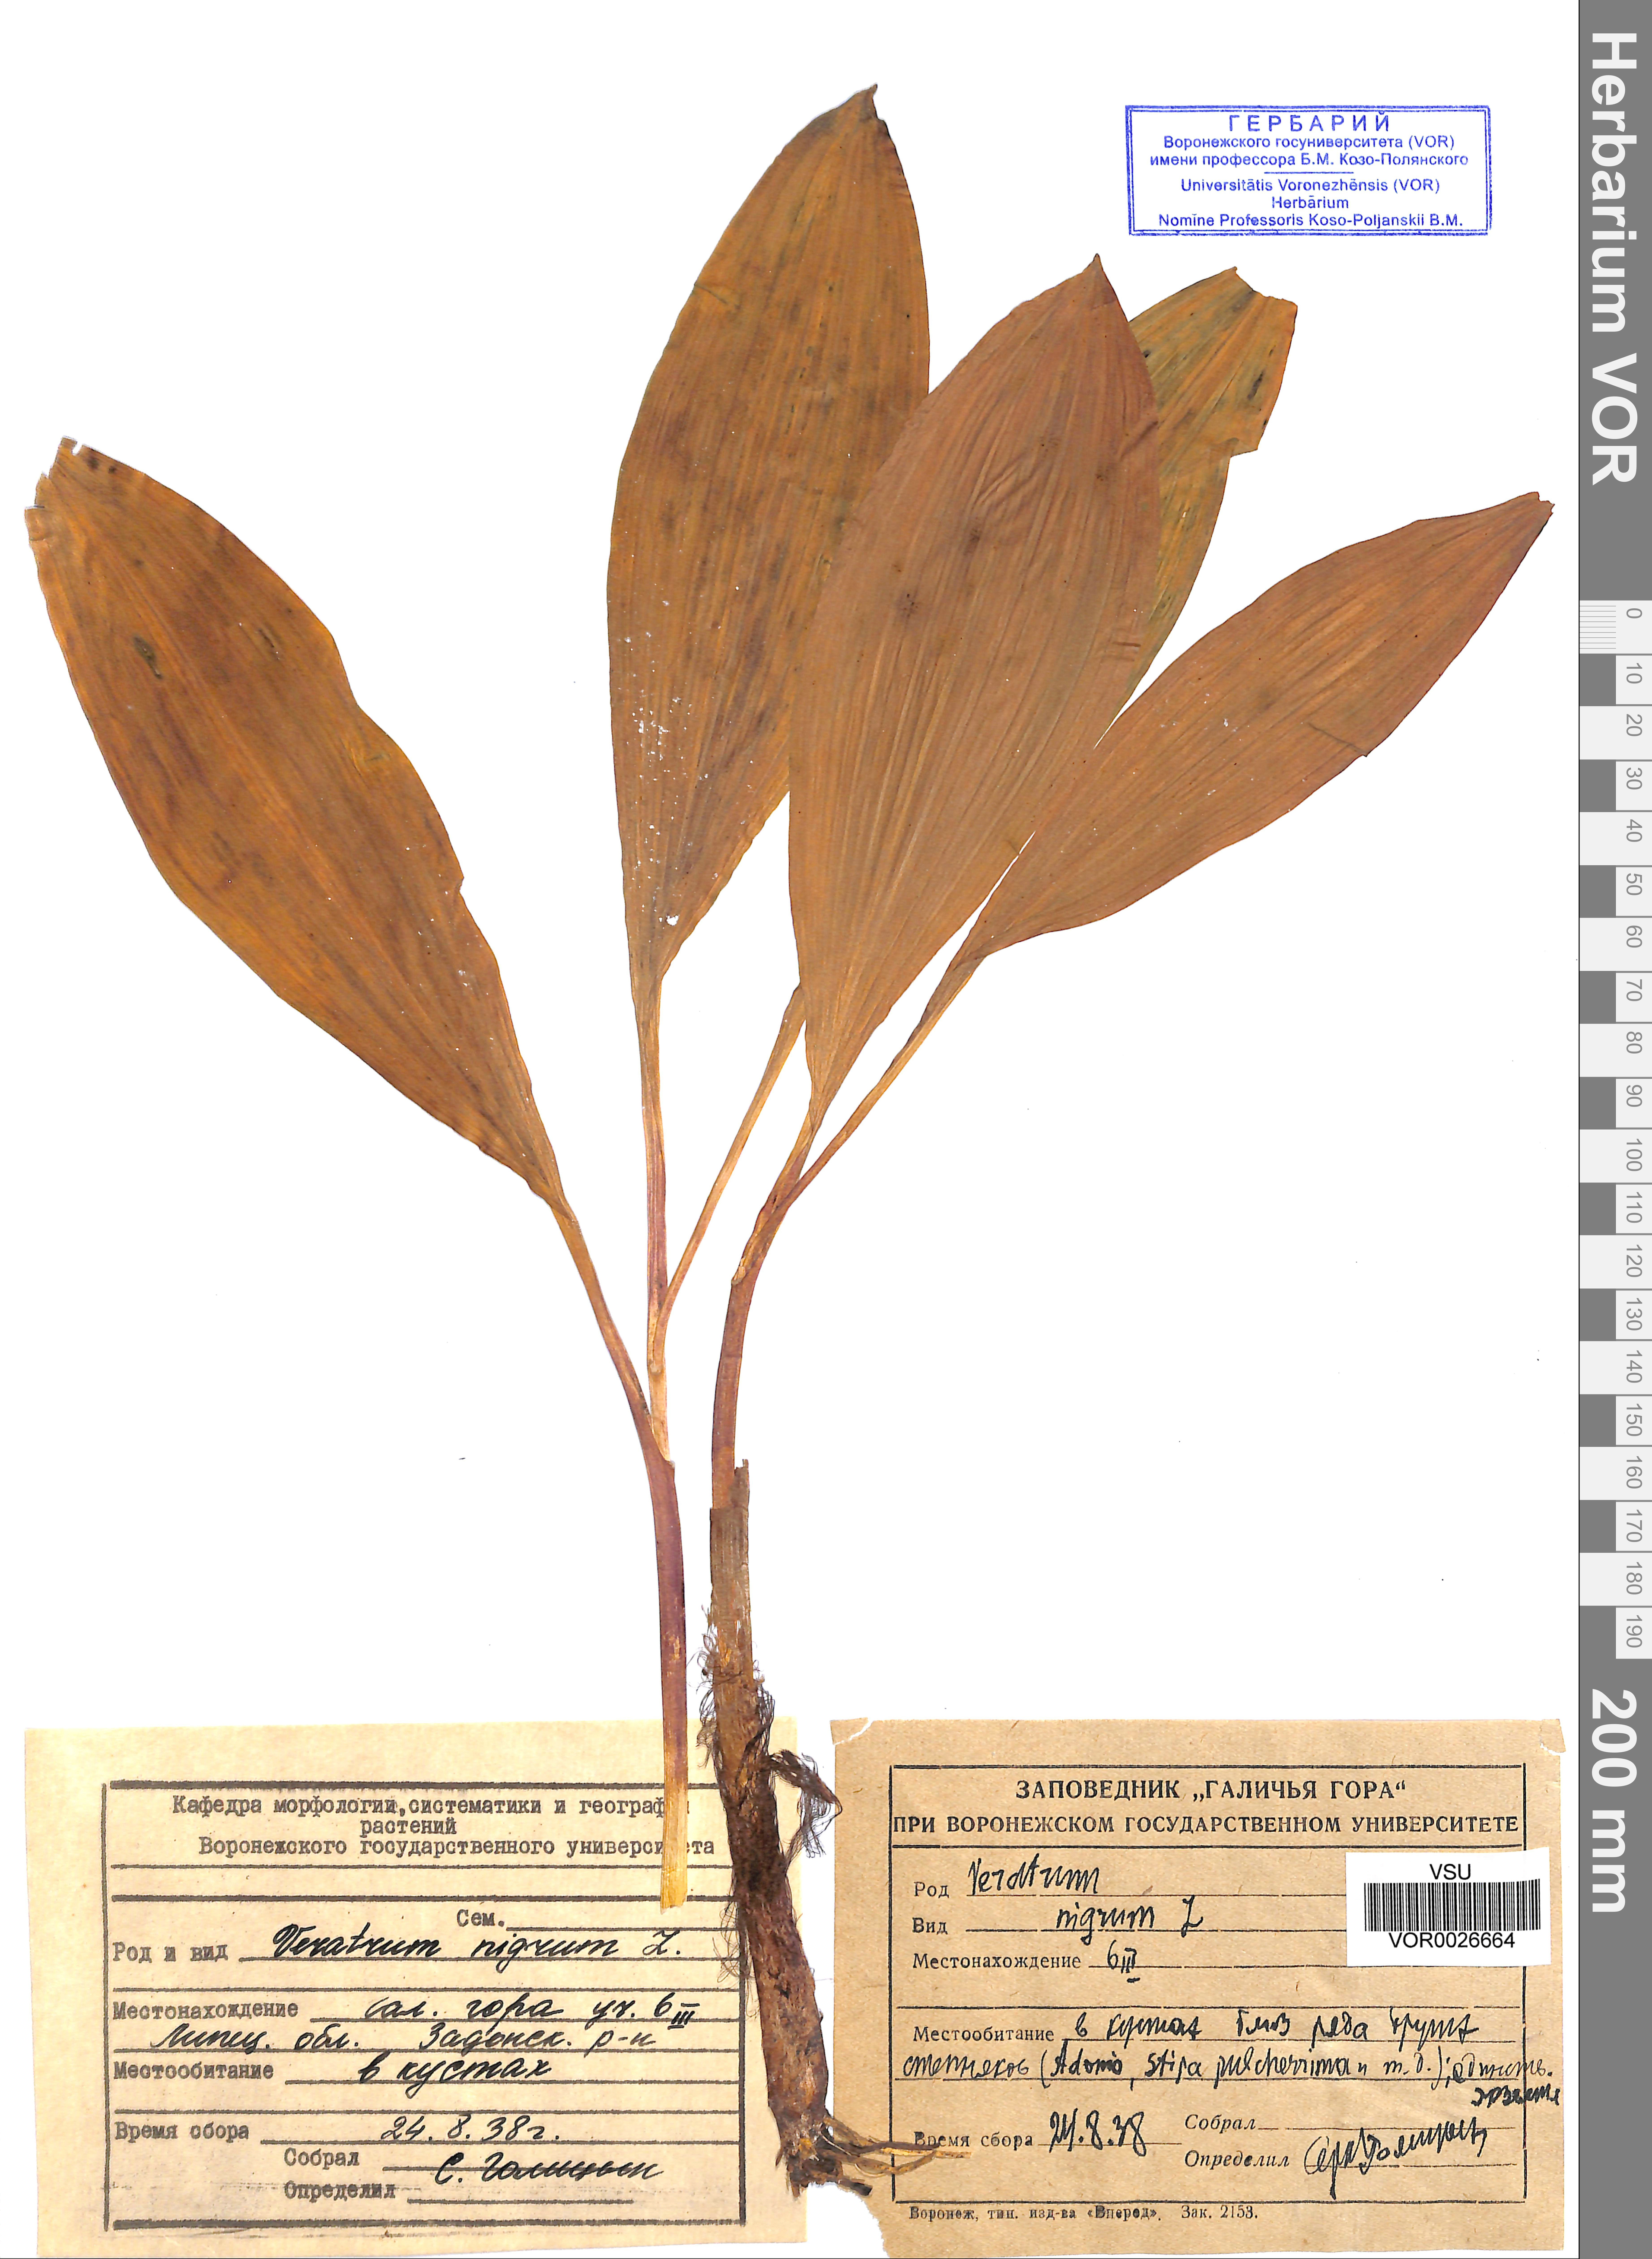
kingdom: Plantae
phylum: Tracheophyta
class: Liliopsida
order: Liliales
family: Melanthiaceae
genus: Veratrum
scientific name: Veratrum nigrum
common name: Black veratrum
